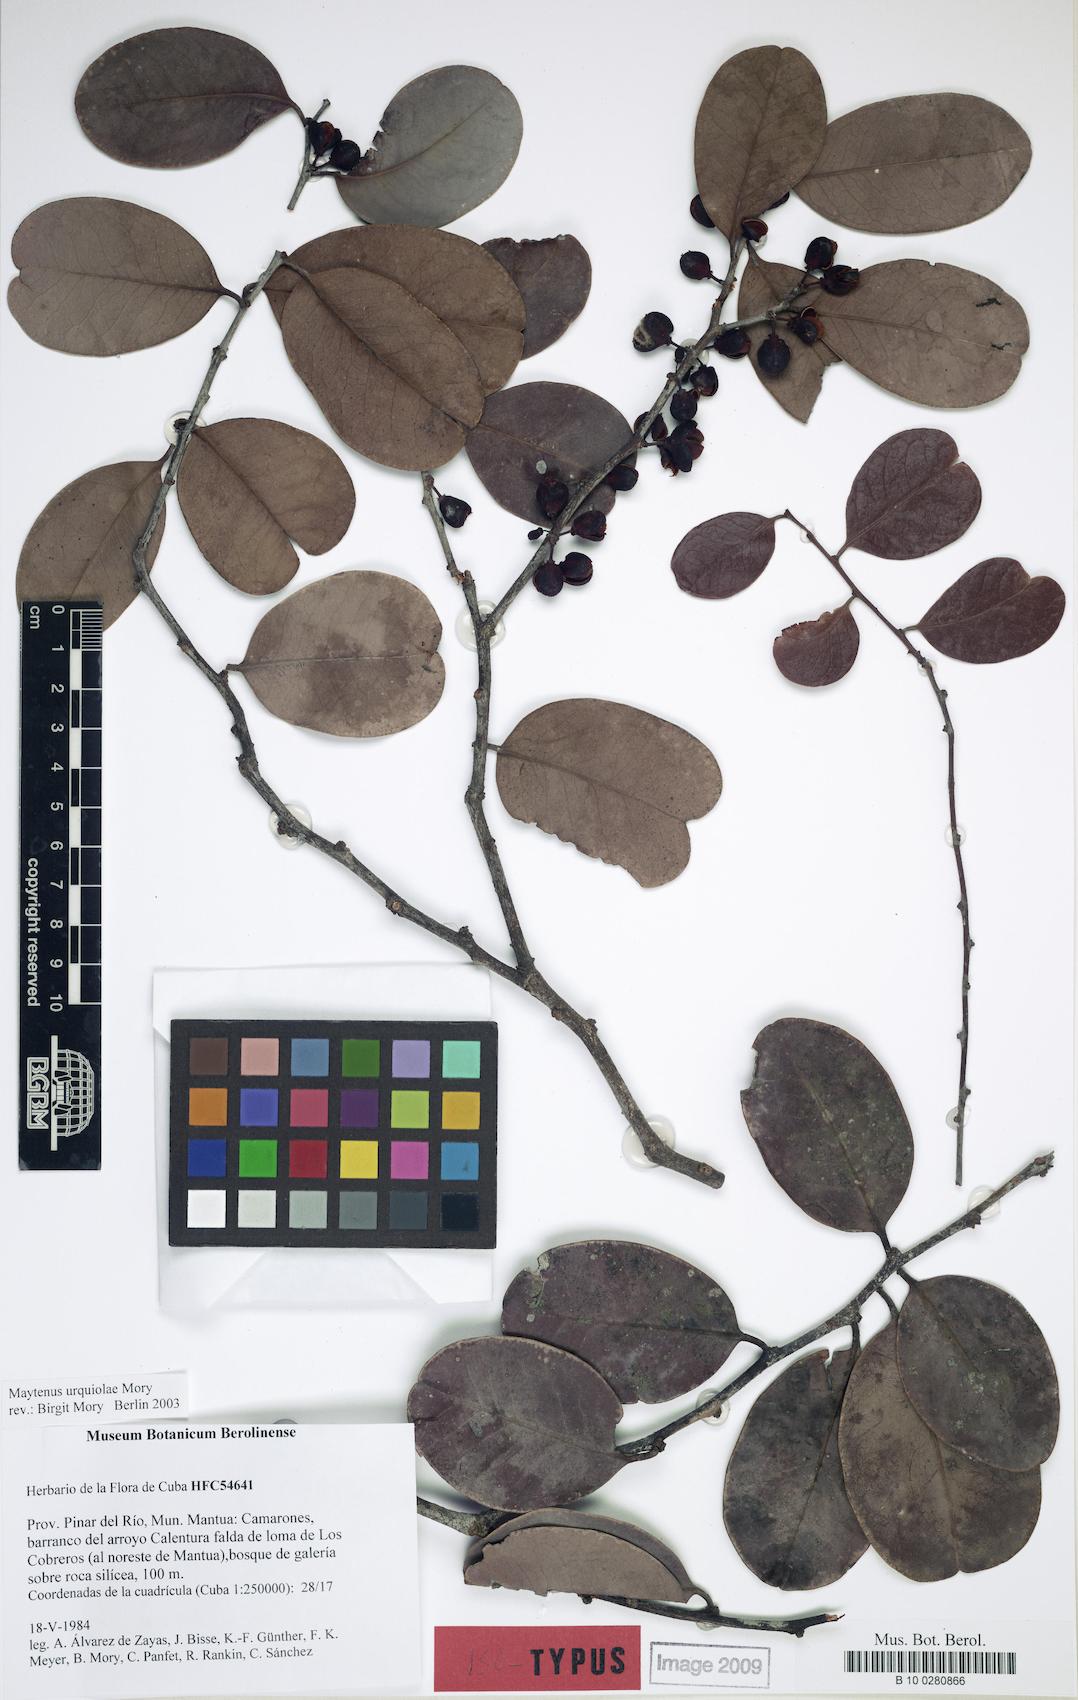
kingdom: Plantae
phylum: Tracheophyta
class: Magnoliopsida
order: Celastrales
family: Celastraceae
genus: Monteverdia
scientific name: Monteverdia urquiolae
